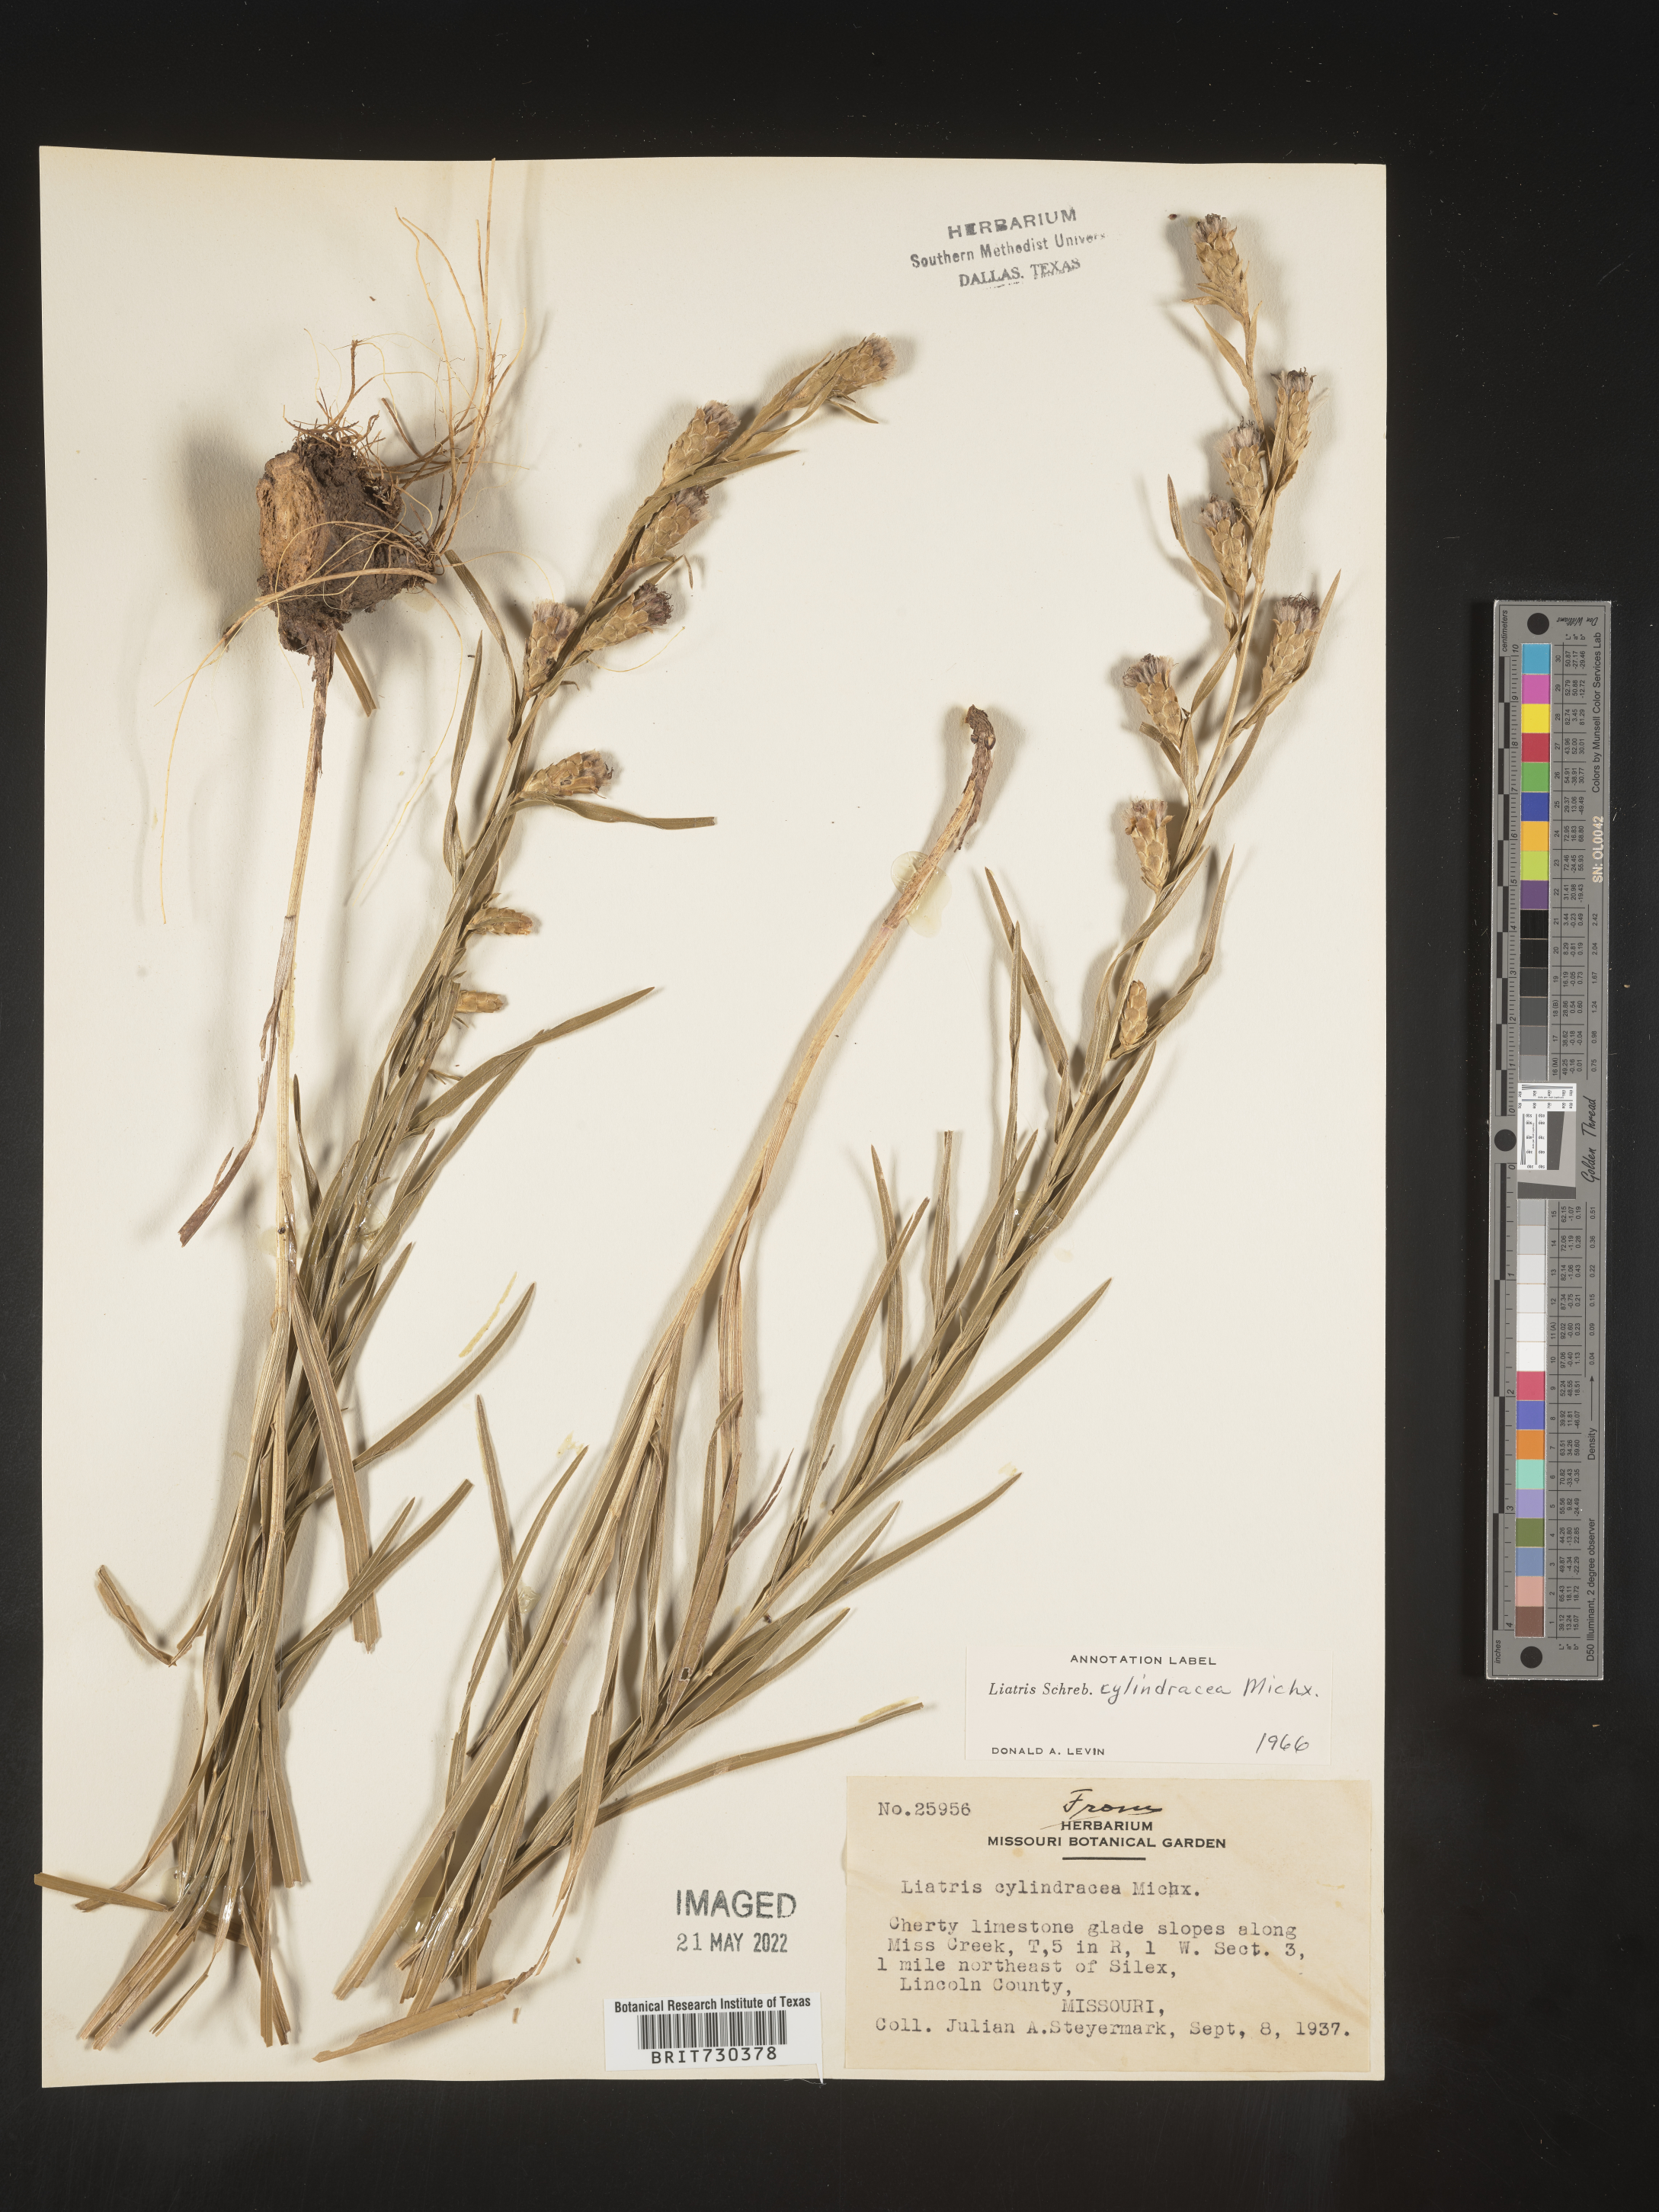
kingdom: Plantae
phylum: Tracheophyta
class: Magnoliopsida
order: Asterales
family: Asteraceae
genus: Liatris
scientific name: Liatris cylindracea
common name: Few-head blazingstar
